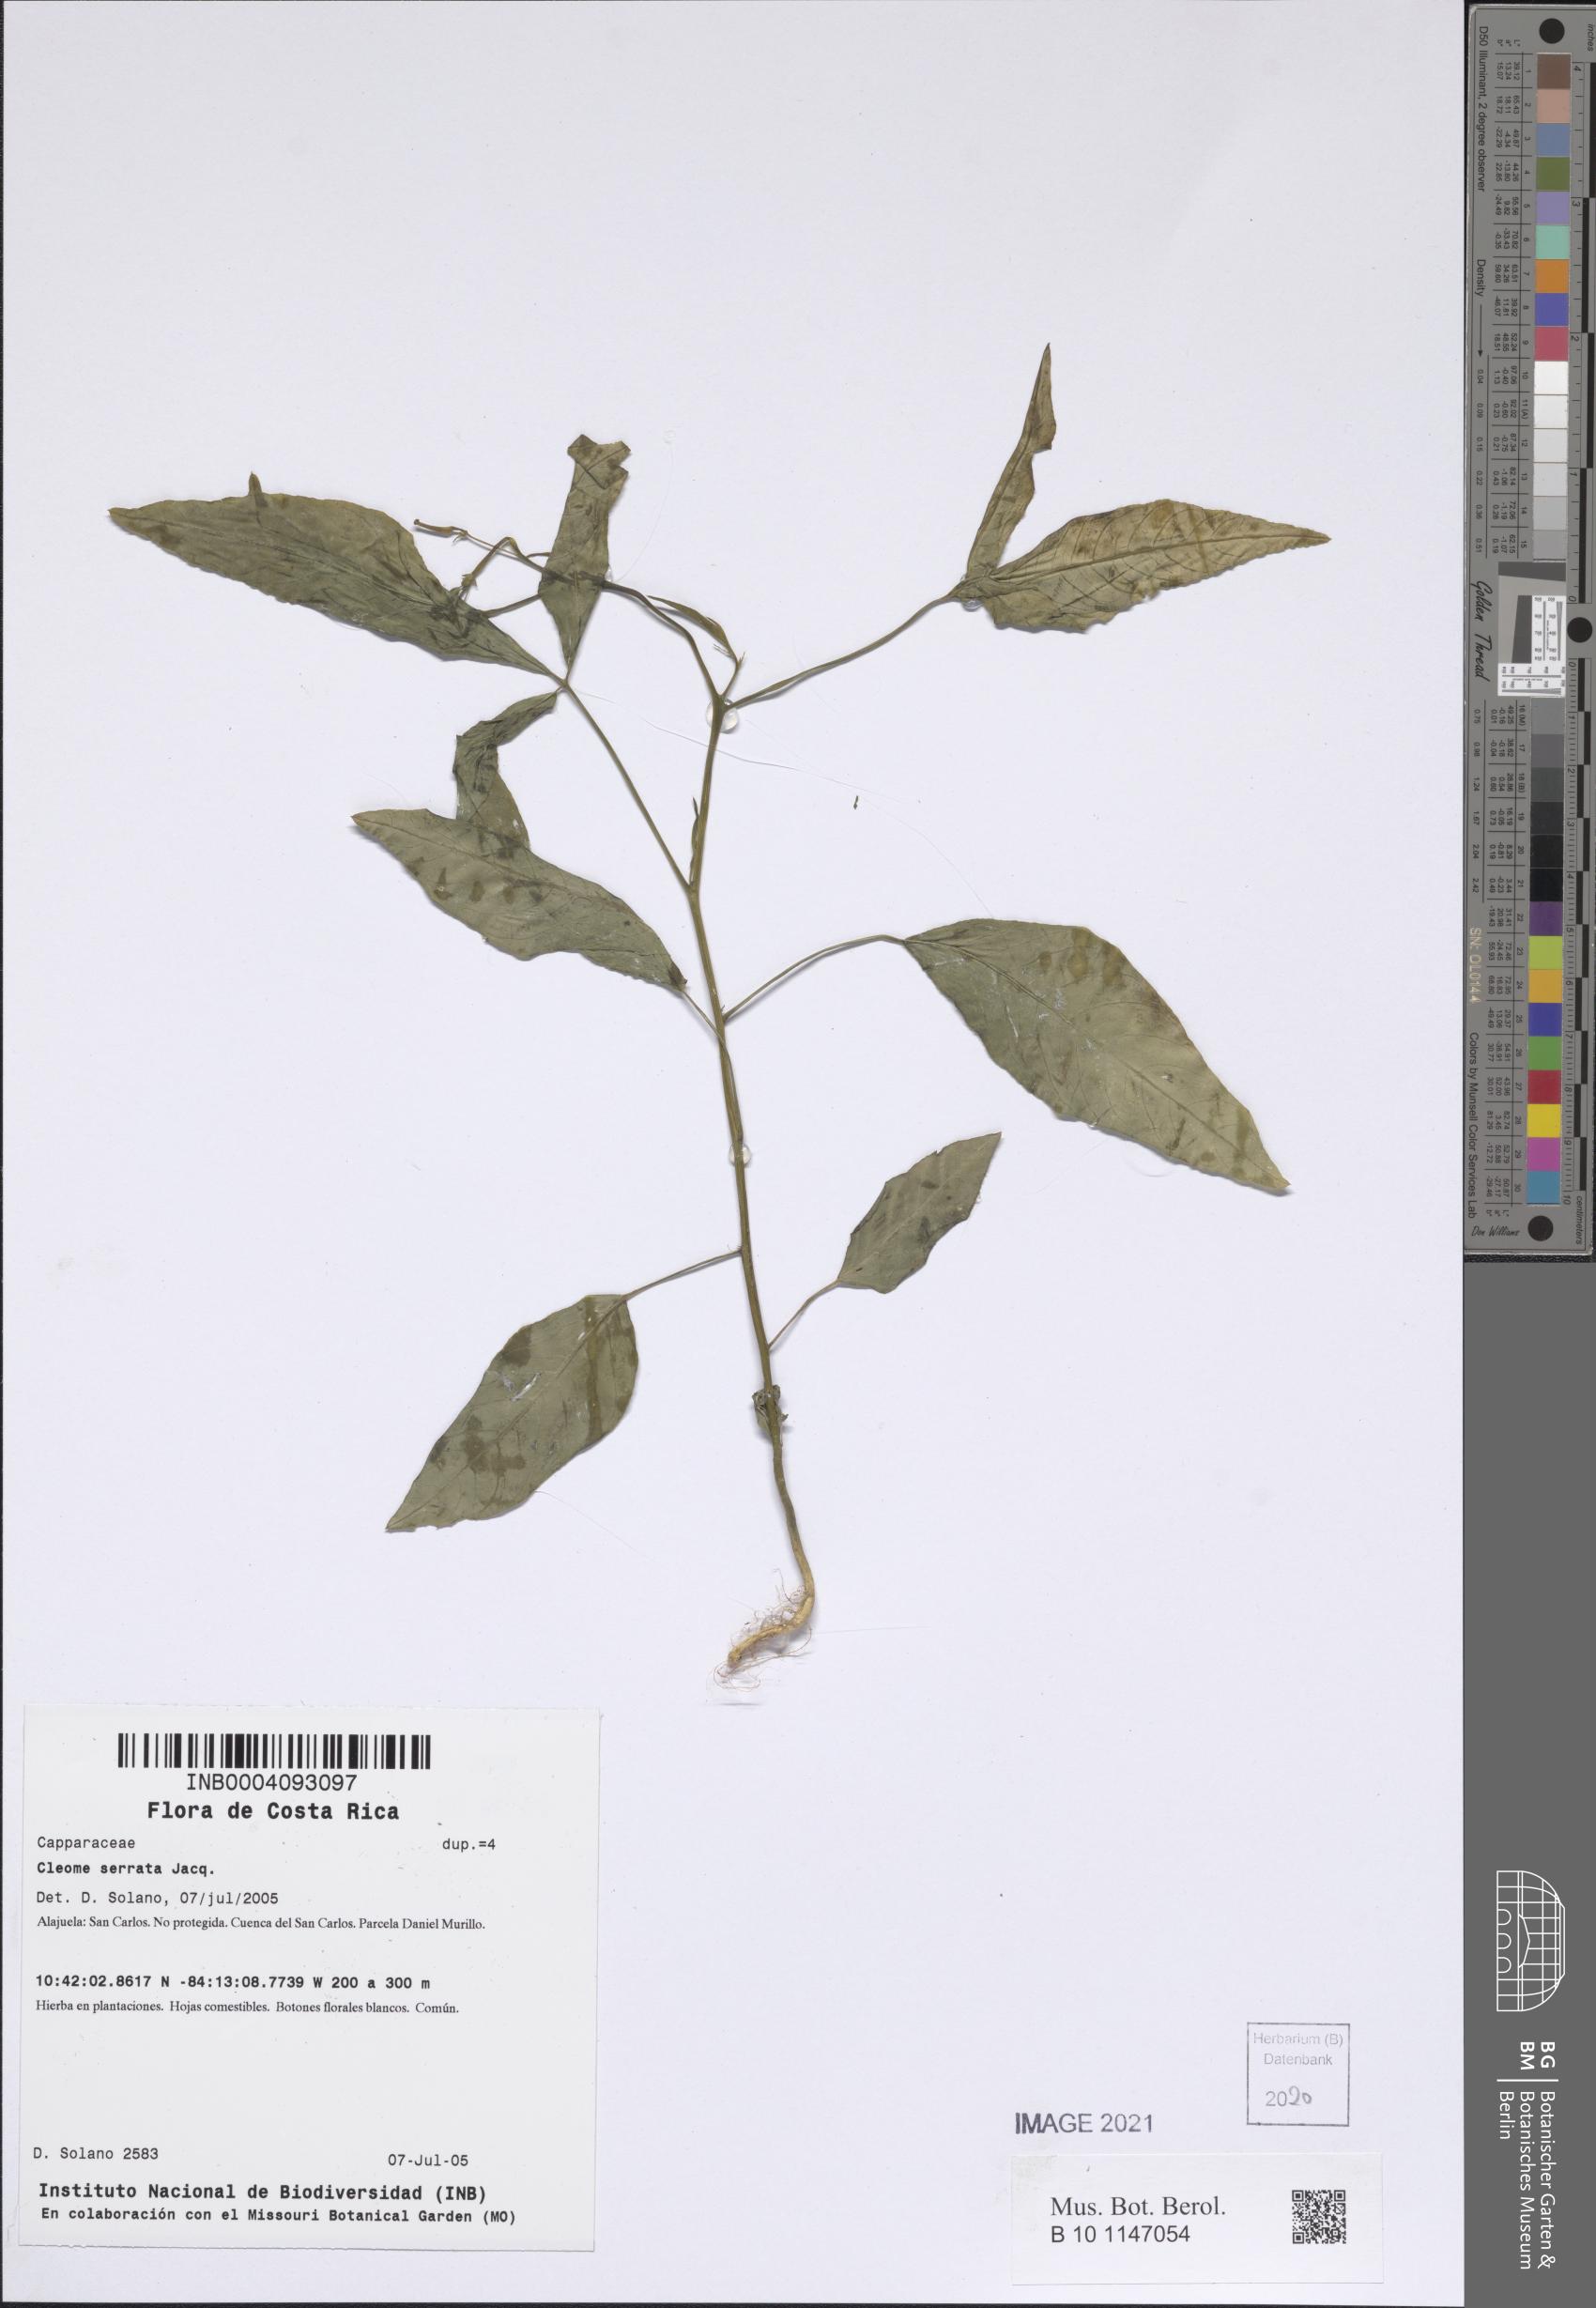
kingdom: Plantae
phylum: Tracheophyta
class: Magnoliopsida
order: Brassicales
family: Cleomaceae
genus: Cleoserrata
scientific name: Cleoserrata serrata
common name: Toothed spiderflower
